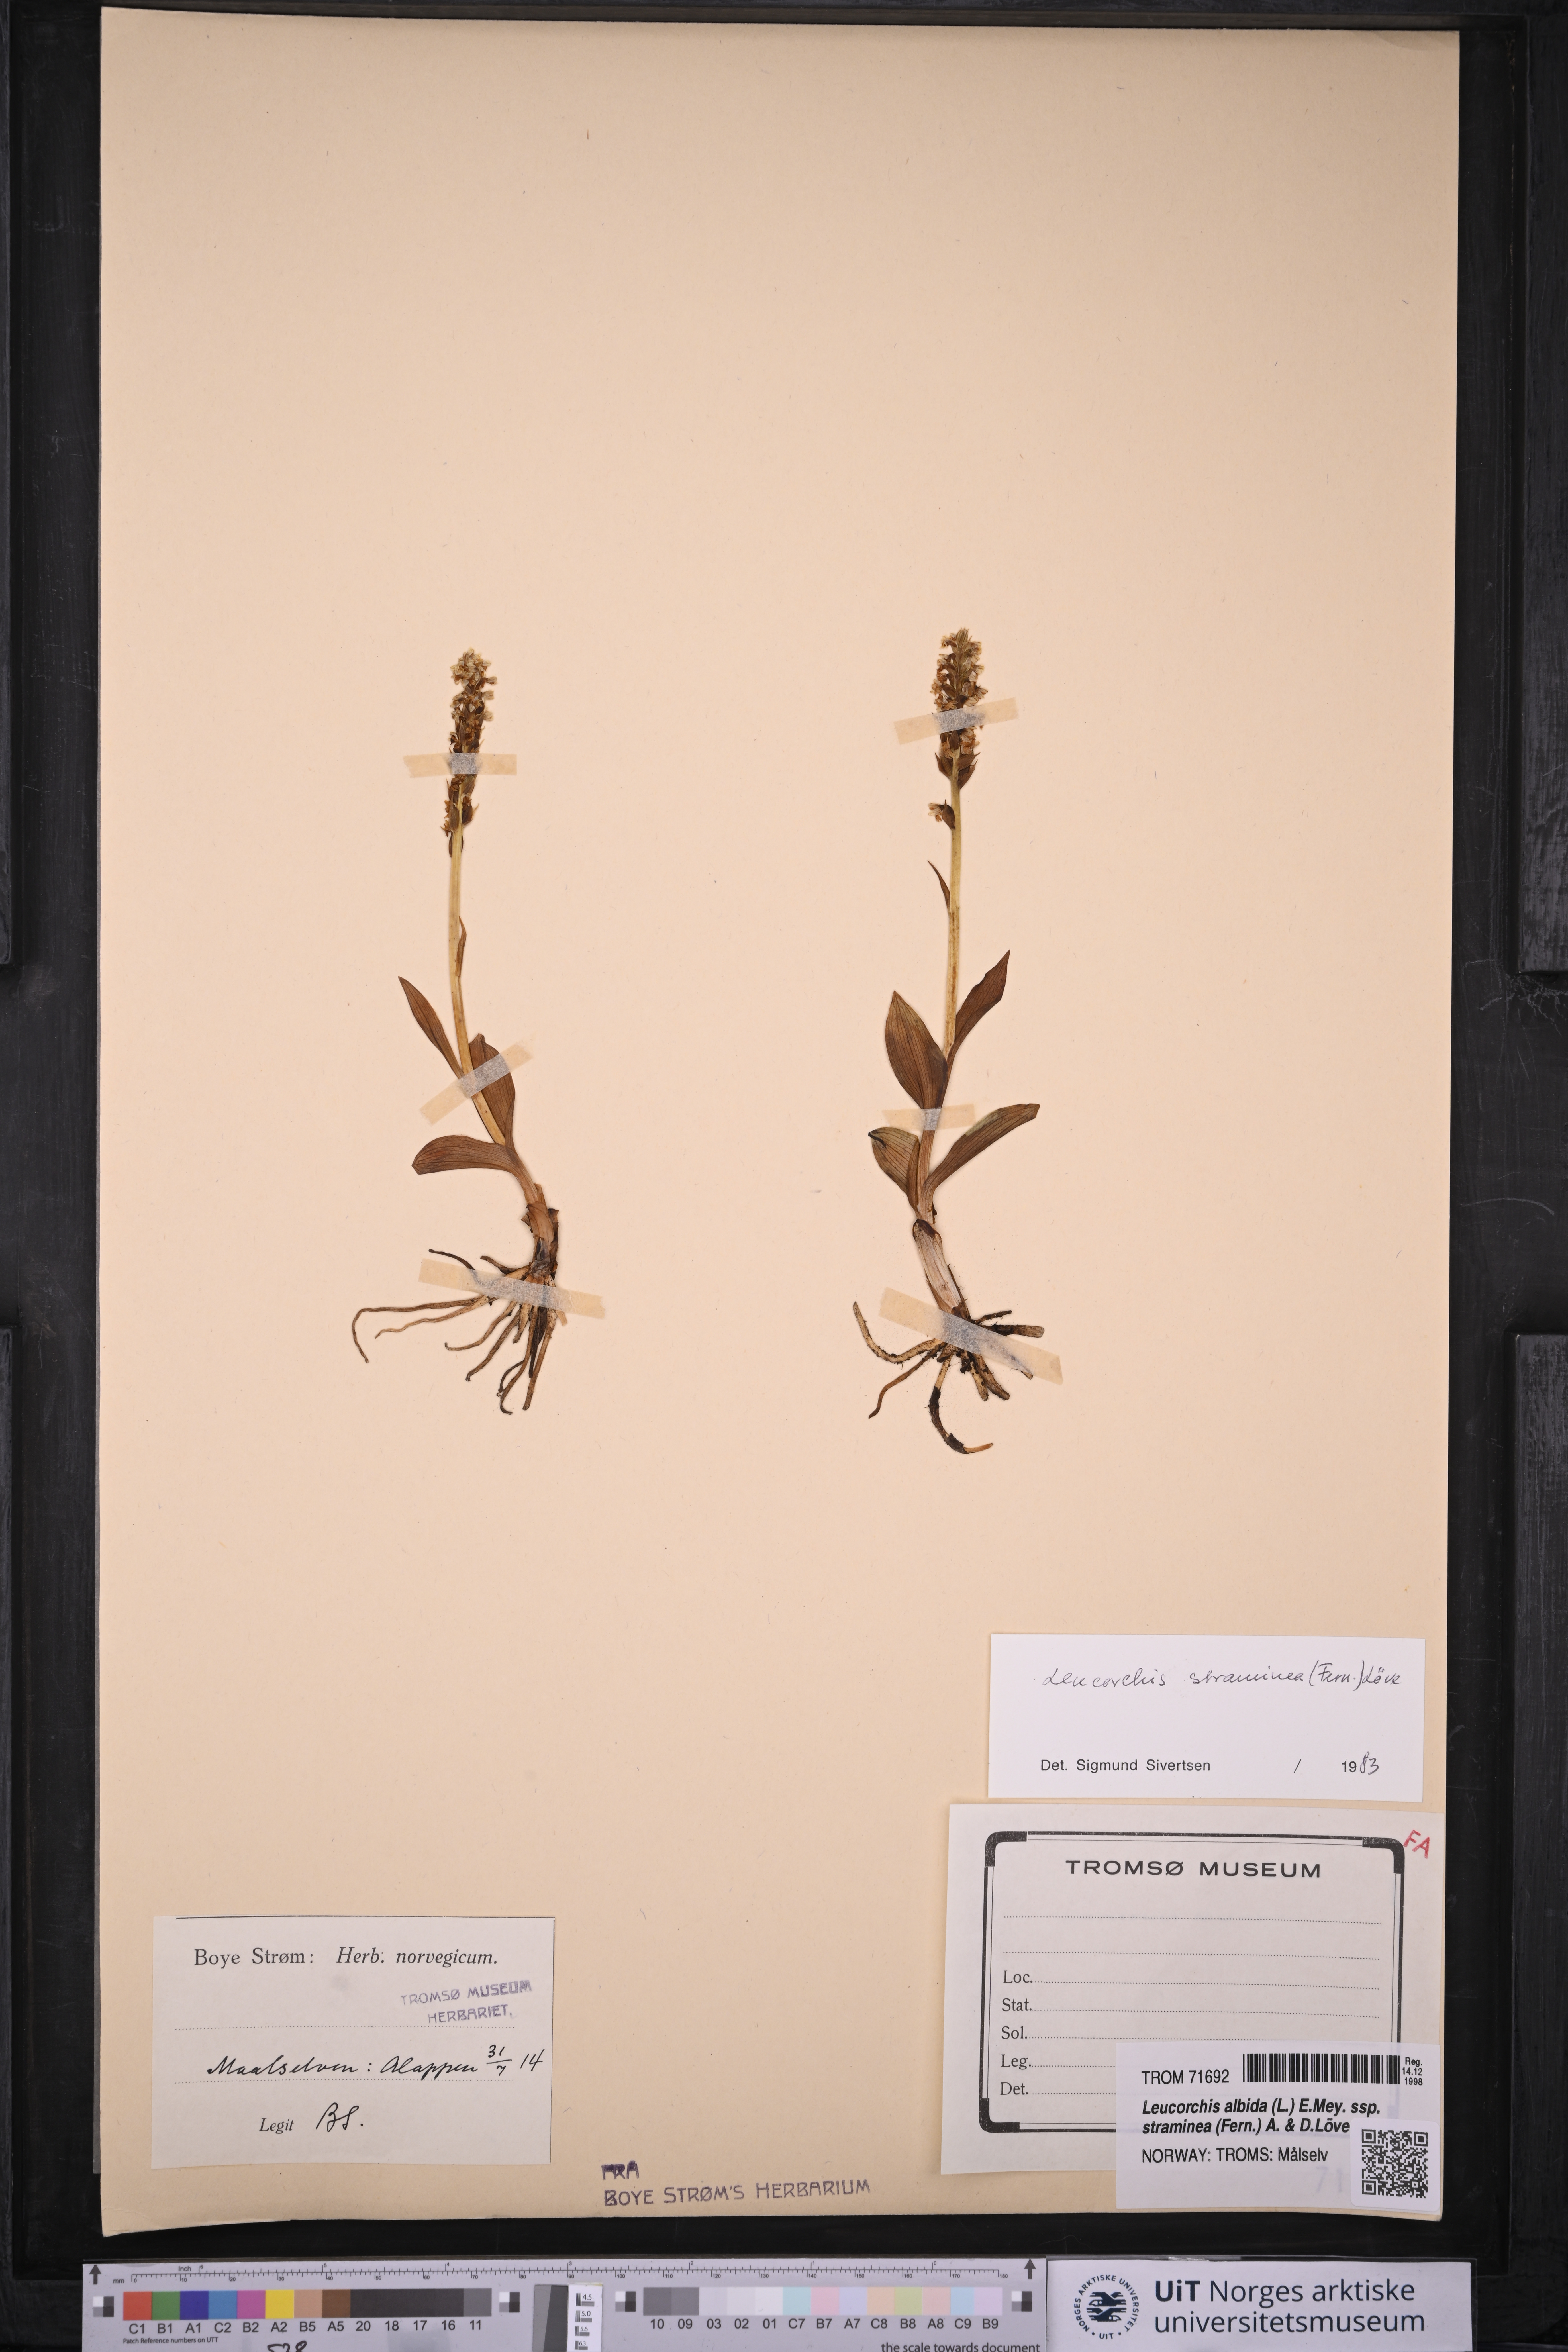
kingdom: Plantae
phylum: Tracheophyta
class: Liliopsida
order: Asparagales
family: Orchidaceae
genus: Pseudorchis
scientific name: Pseudorchis straminea
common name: Vanilla-scented bog orchid
